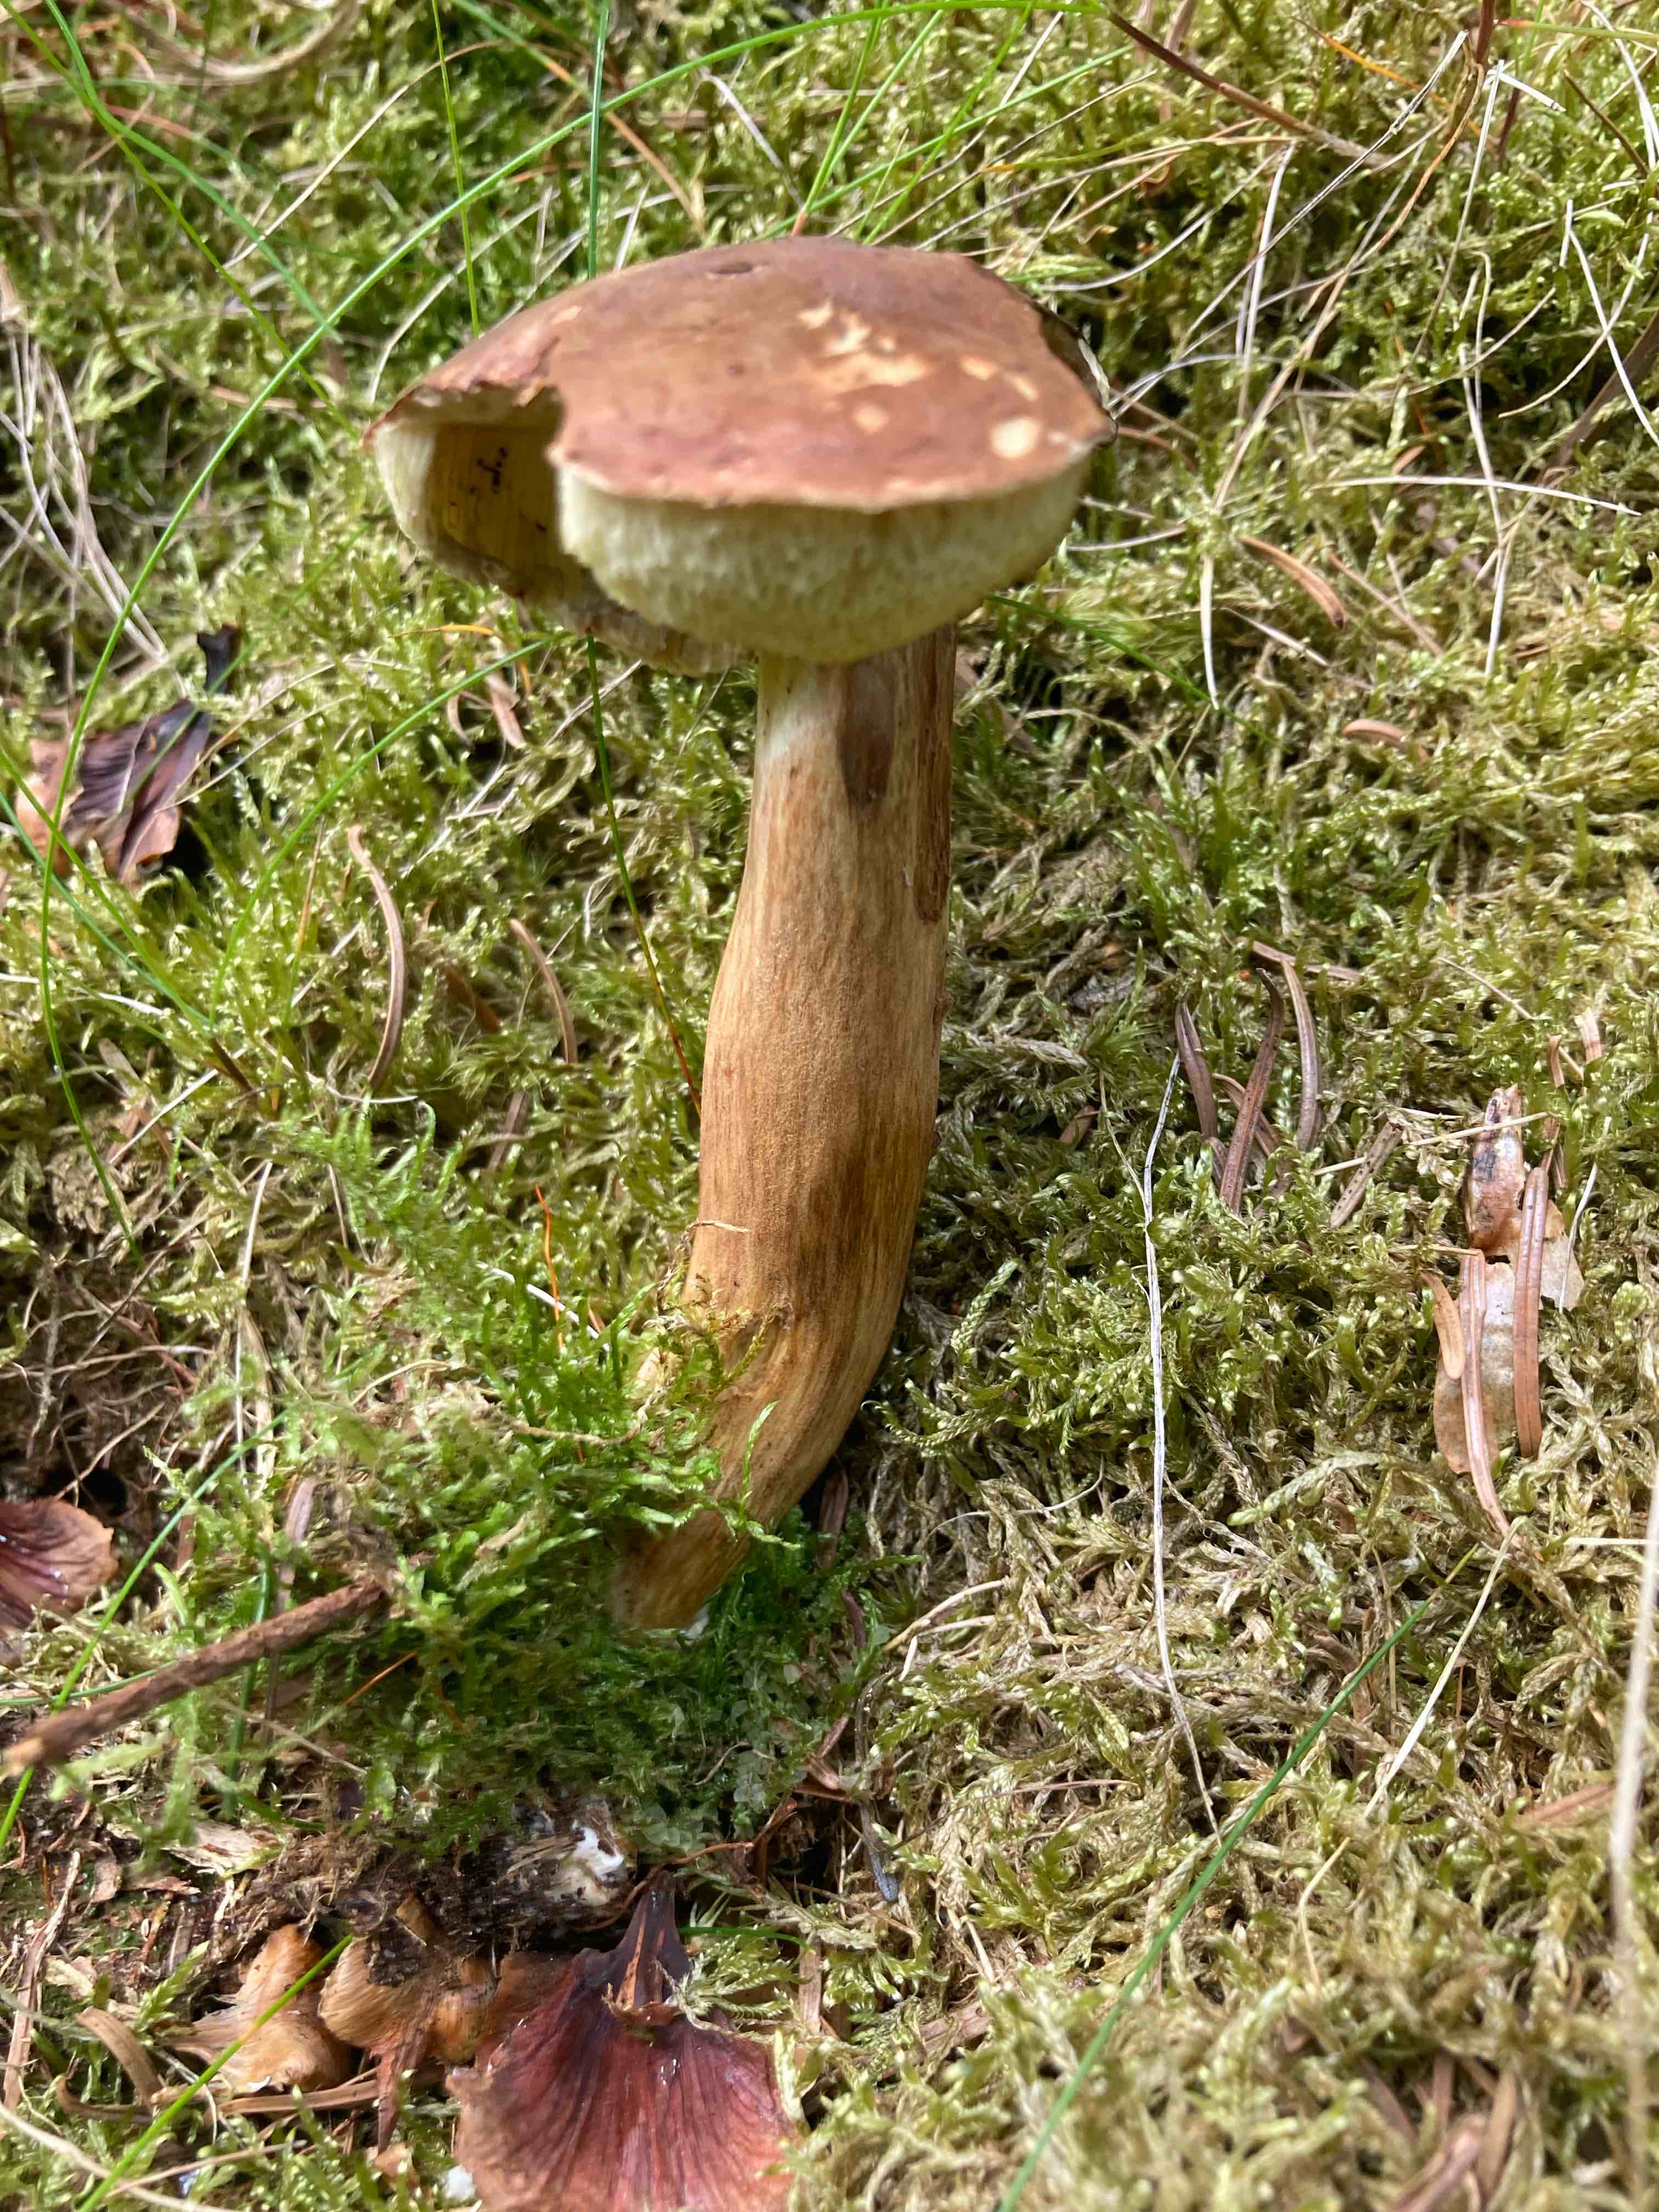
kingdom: Fungi
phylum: Basidiomycota
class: Agaricomycetes
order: Boletales
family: Boletaceae
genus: Imleria
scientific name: Imleria badia
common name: brunstokket rørhat
